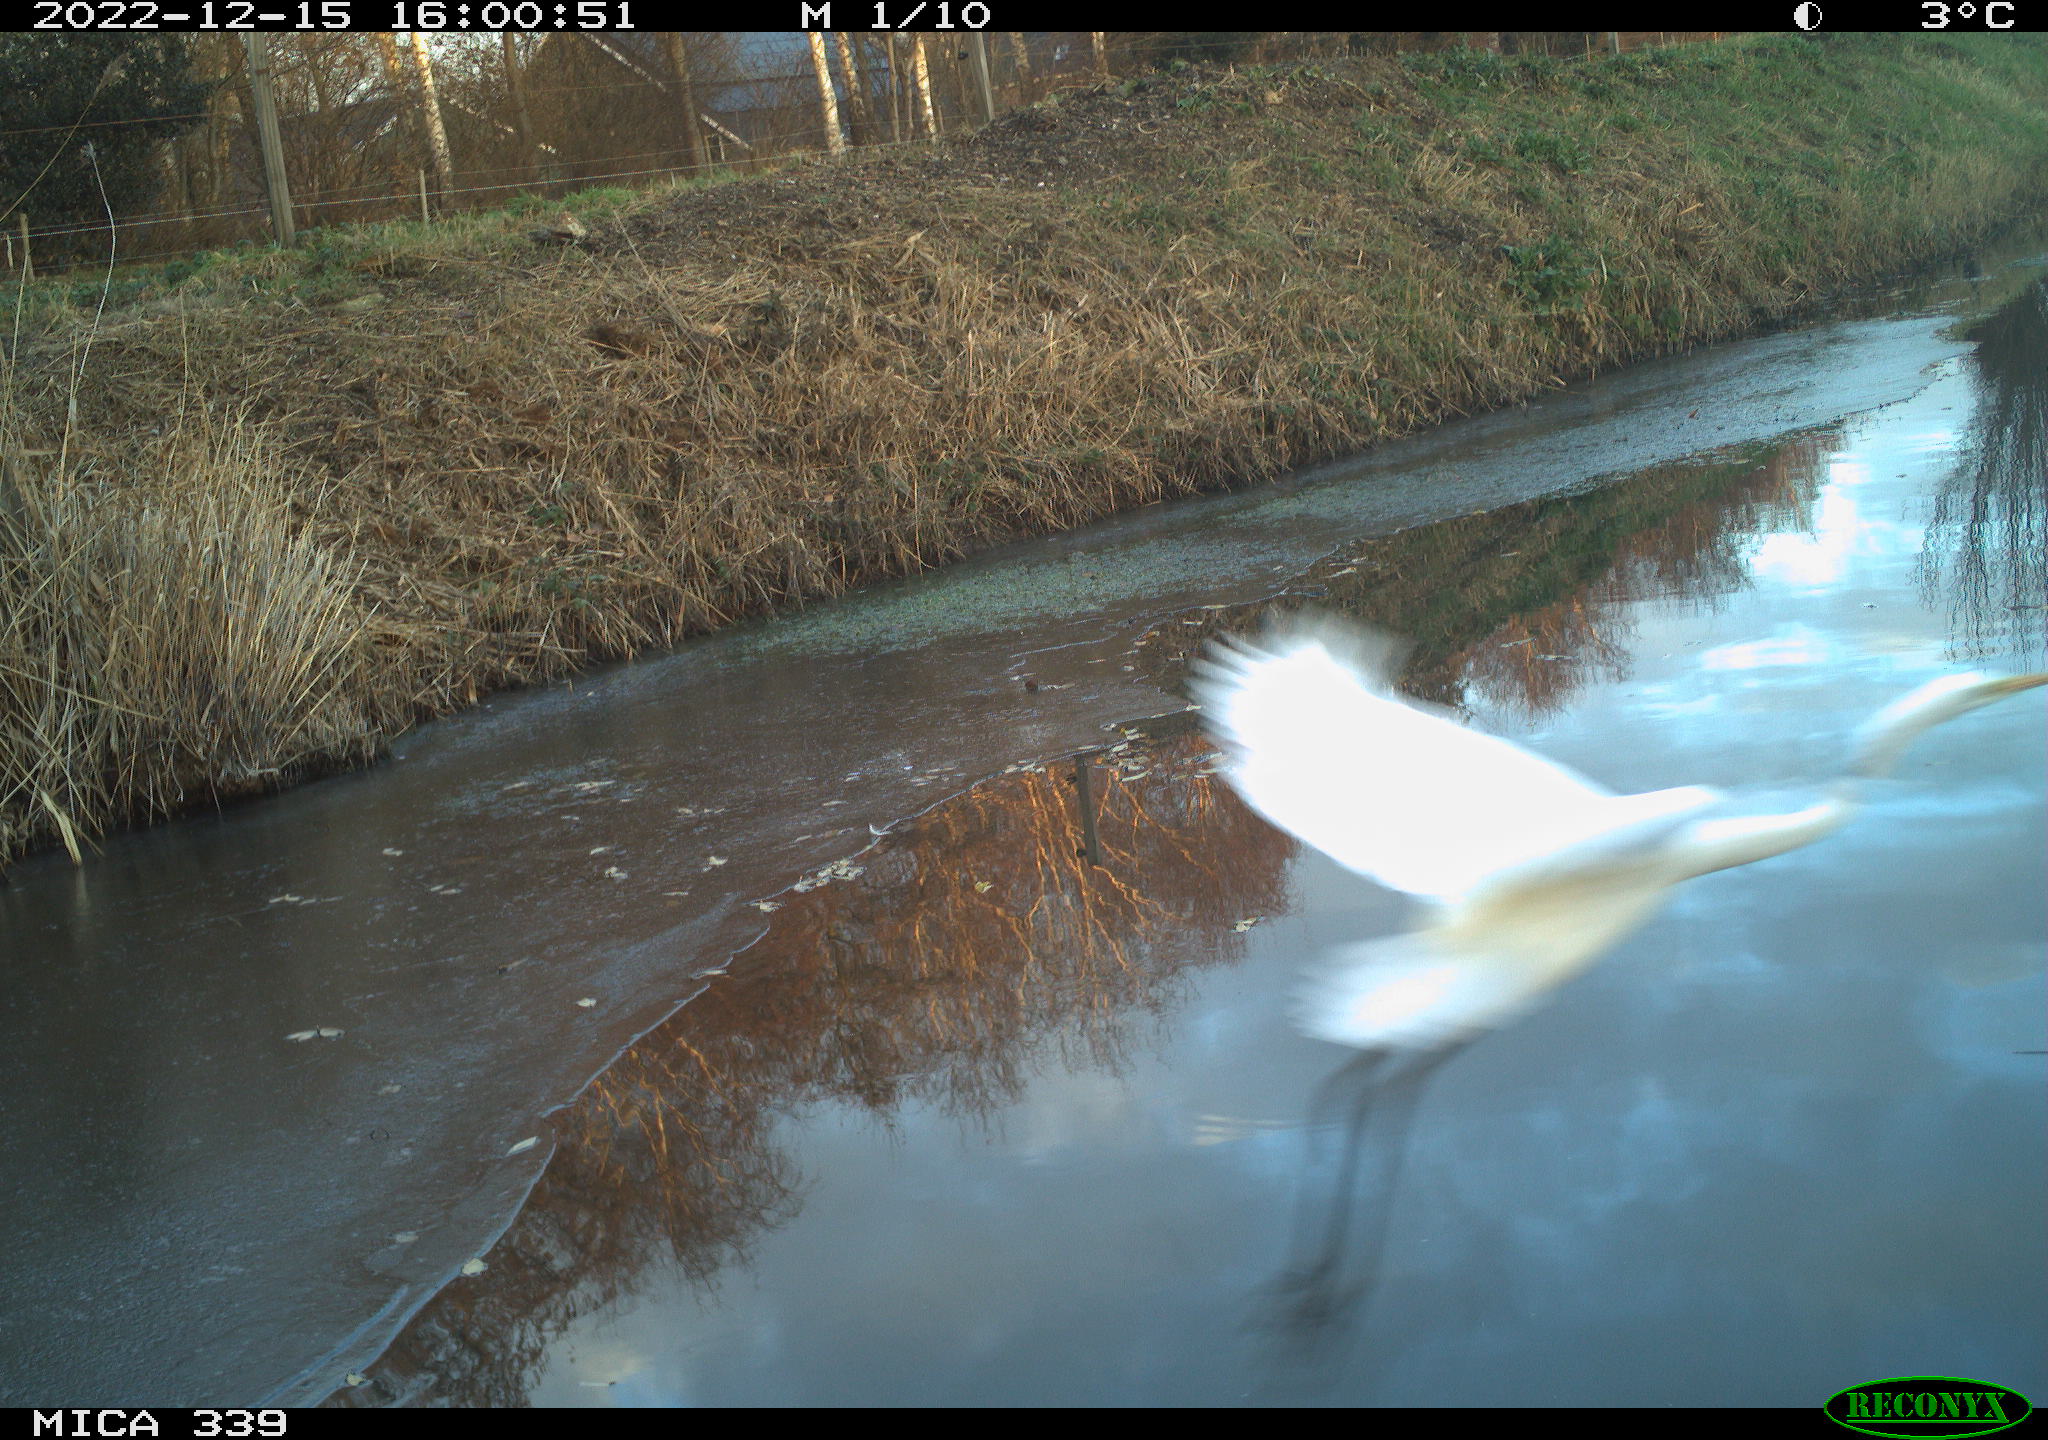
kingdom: Animalia
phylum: Chordata
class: Aves
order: Pelecaniformes
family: Ardeidae
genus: Ardea
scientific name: Ardea alba
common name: Great egret
